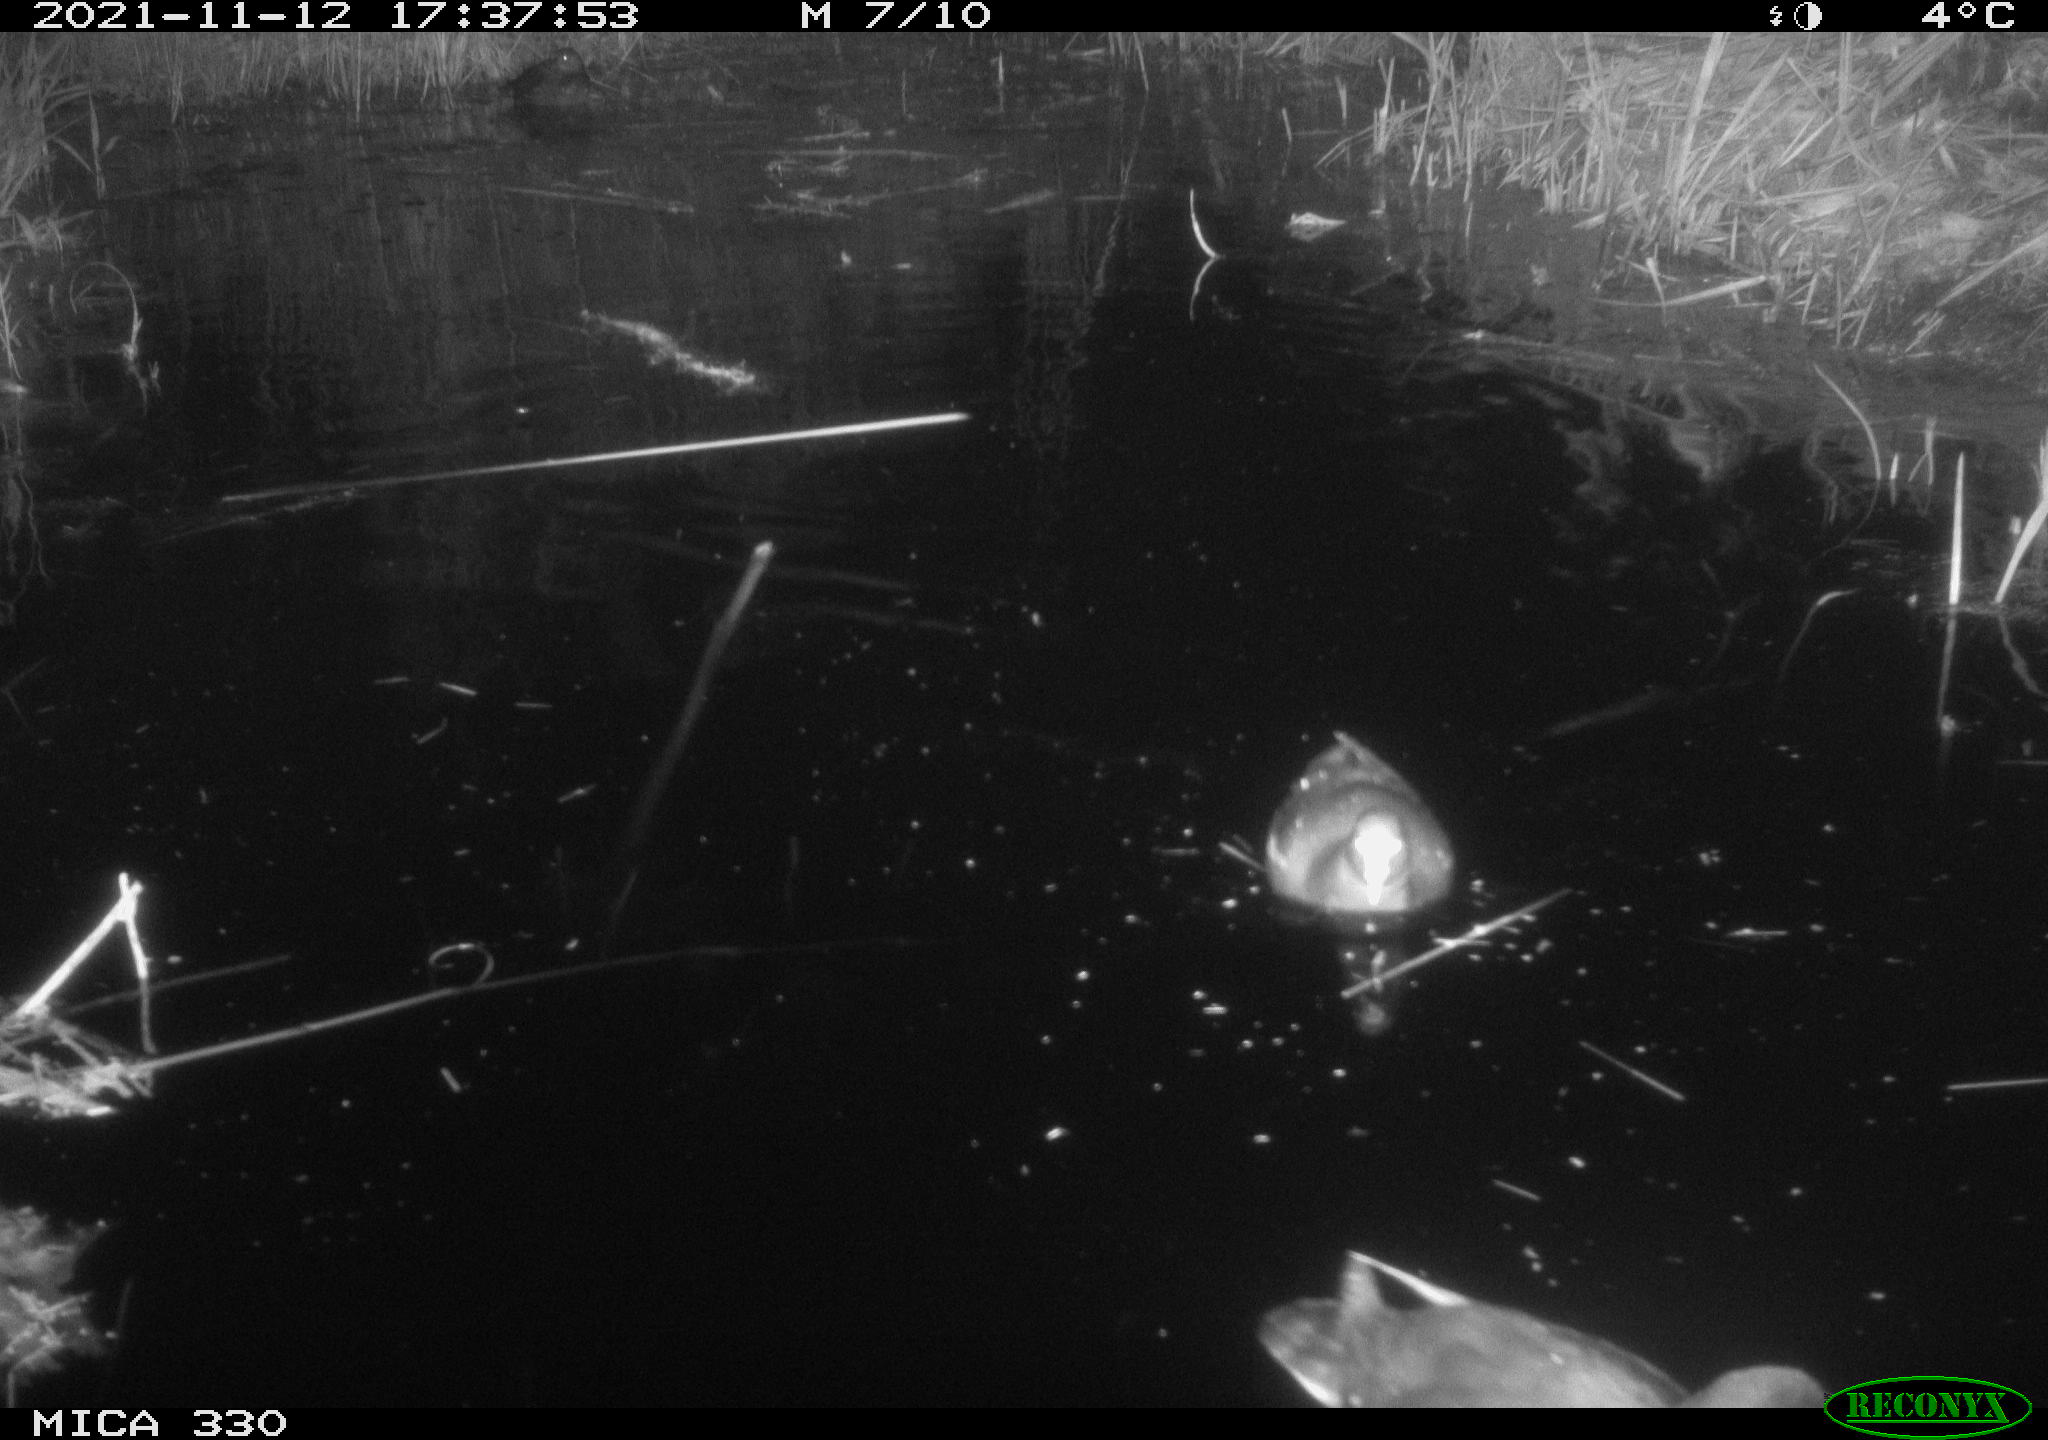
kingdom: Animalia
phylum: Chordata
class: Aves
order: Gruiformes
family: Rallidae
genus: Gallinula
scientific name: Gallinula chloropus
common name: Common moorhen
